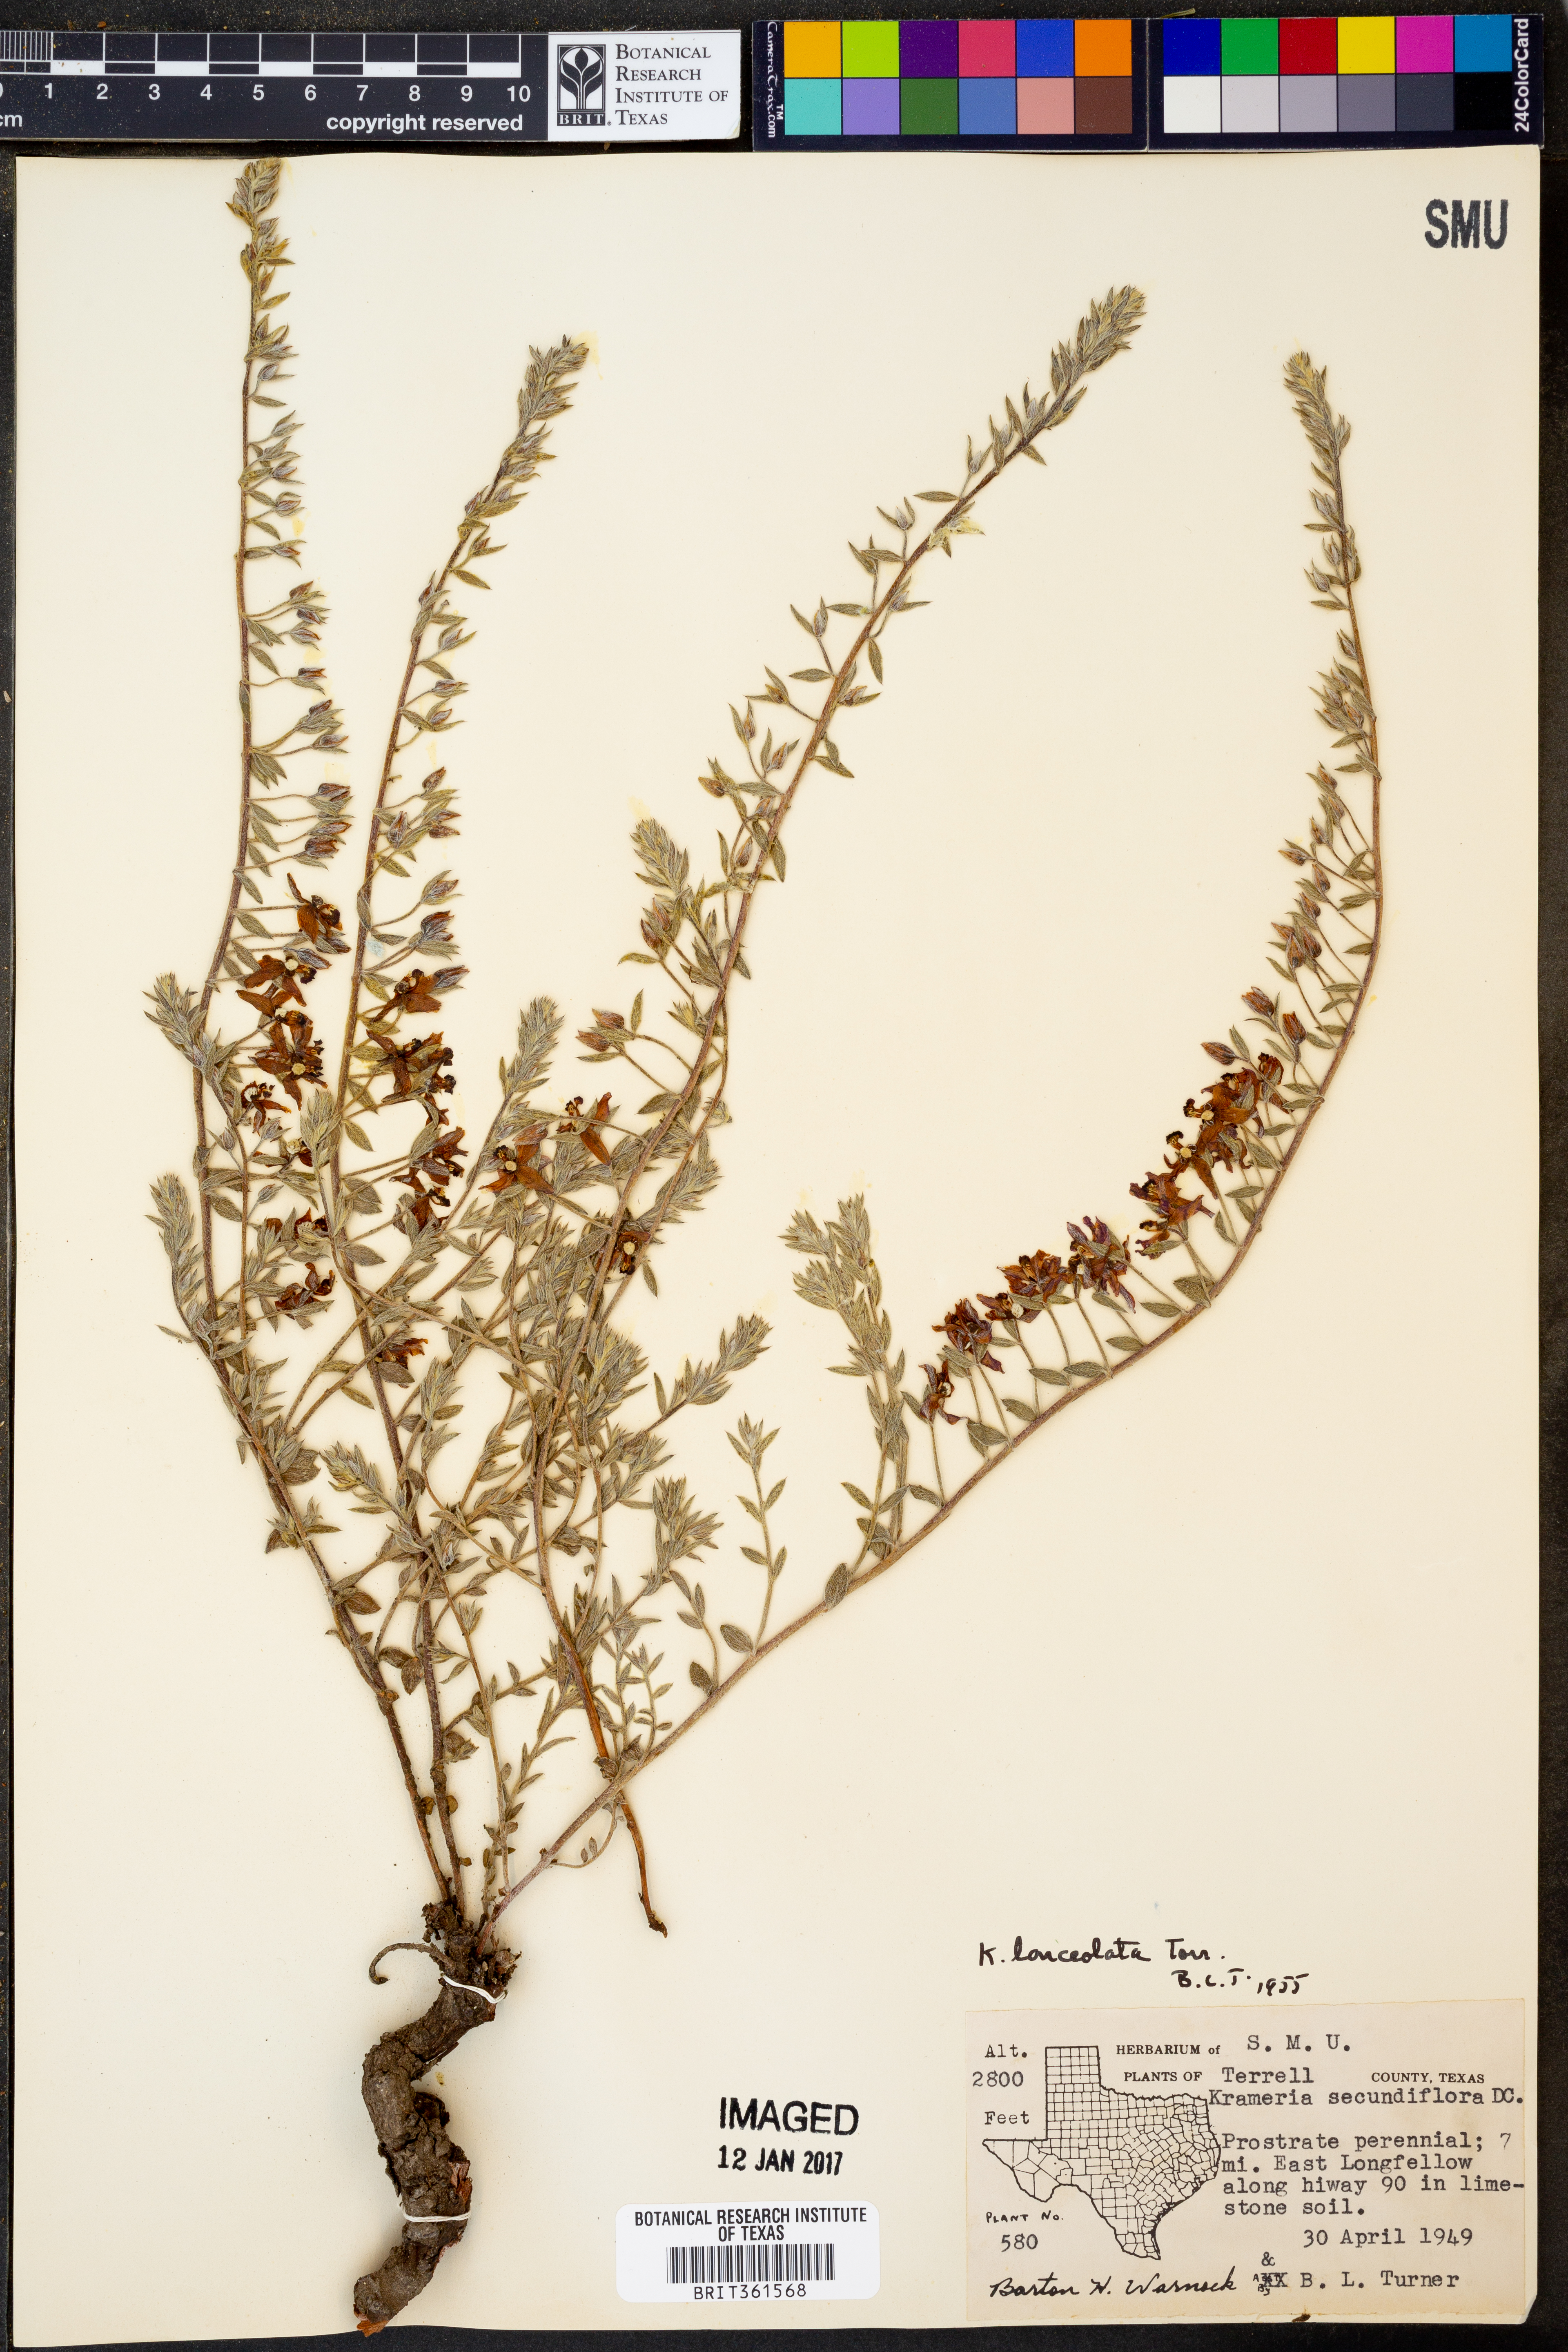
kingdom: Plantae
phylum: Tracheophyta
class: Magnoliopsida
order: Zygophyllales
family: Krameriaceae
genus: Krameria
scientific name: Krameria lanceolata
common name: Ratany
